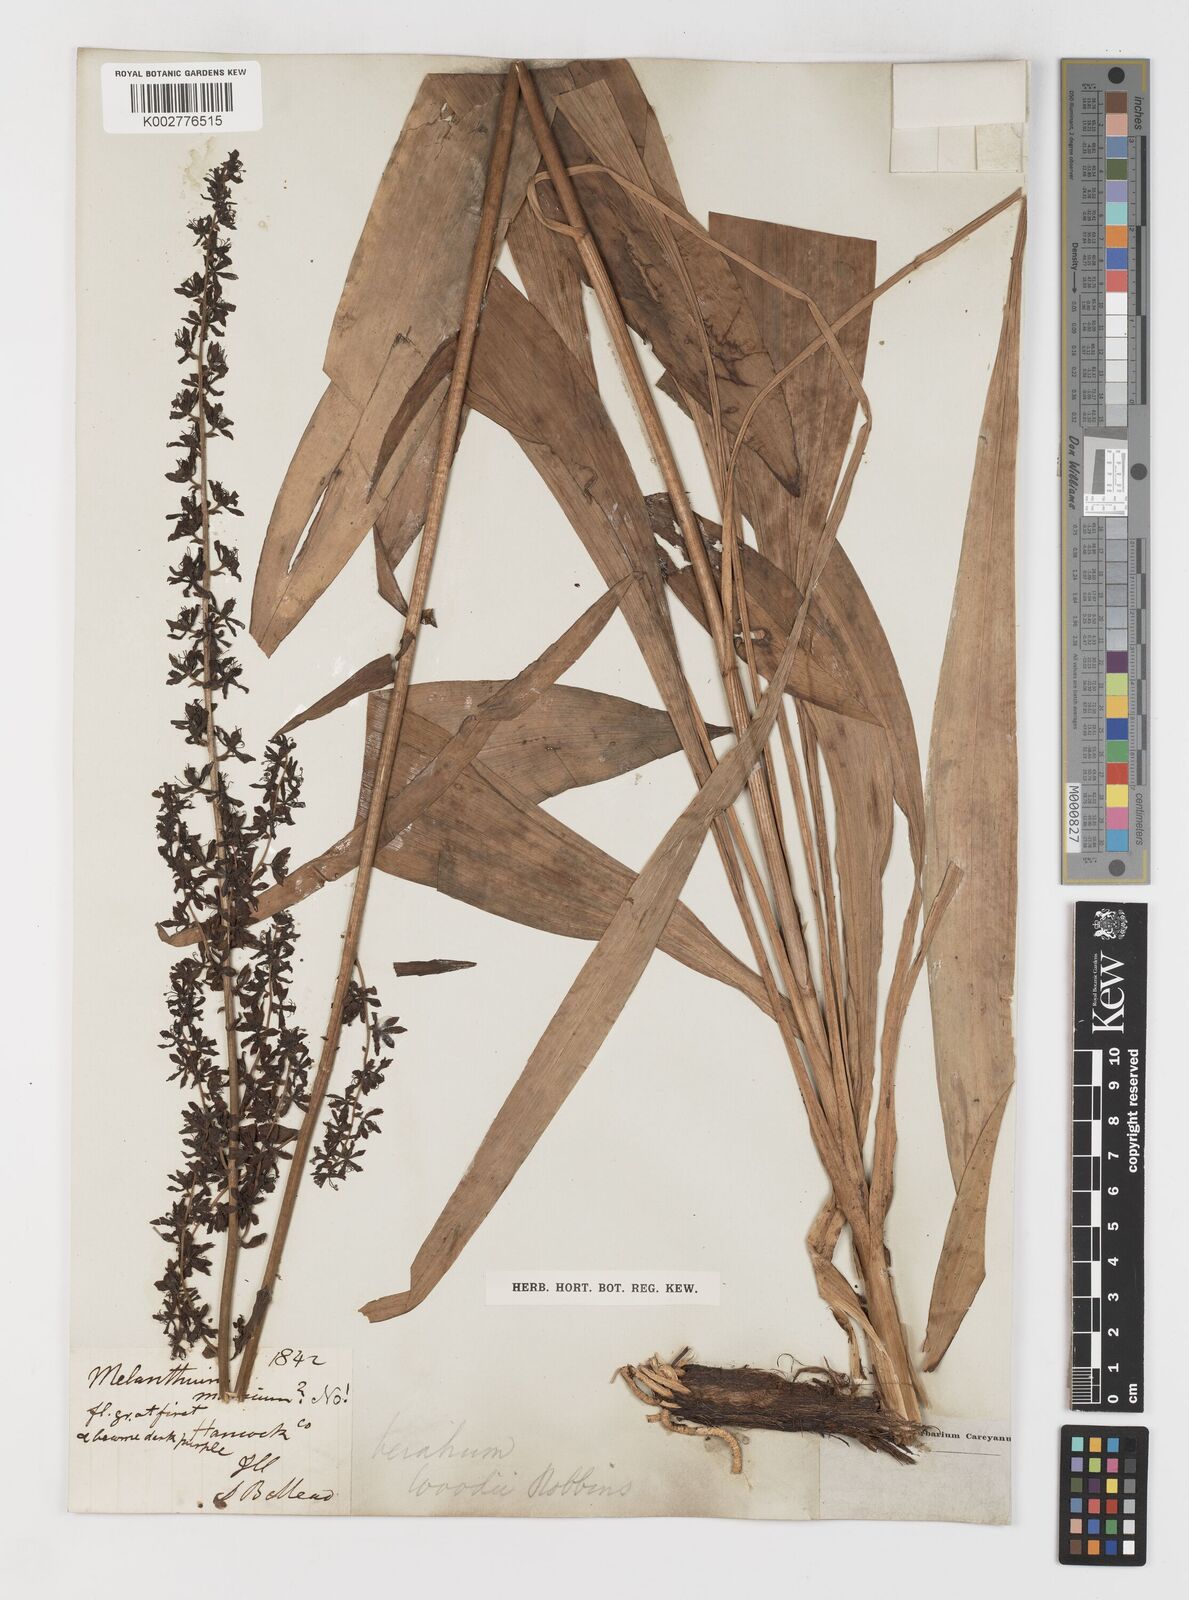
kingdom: Plantae
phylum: Tracheophyta
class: Liliopsida
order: Liliales
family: Melanthiaceae
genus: Melanthium
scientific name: Melanthium woodii
